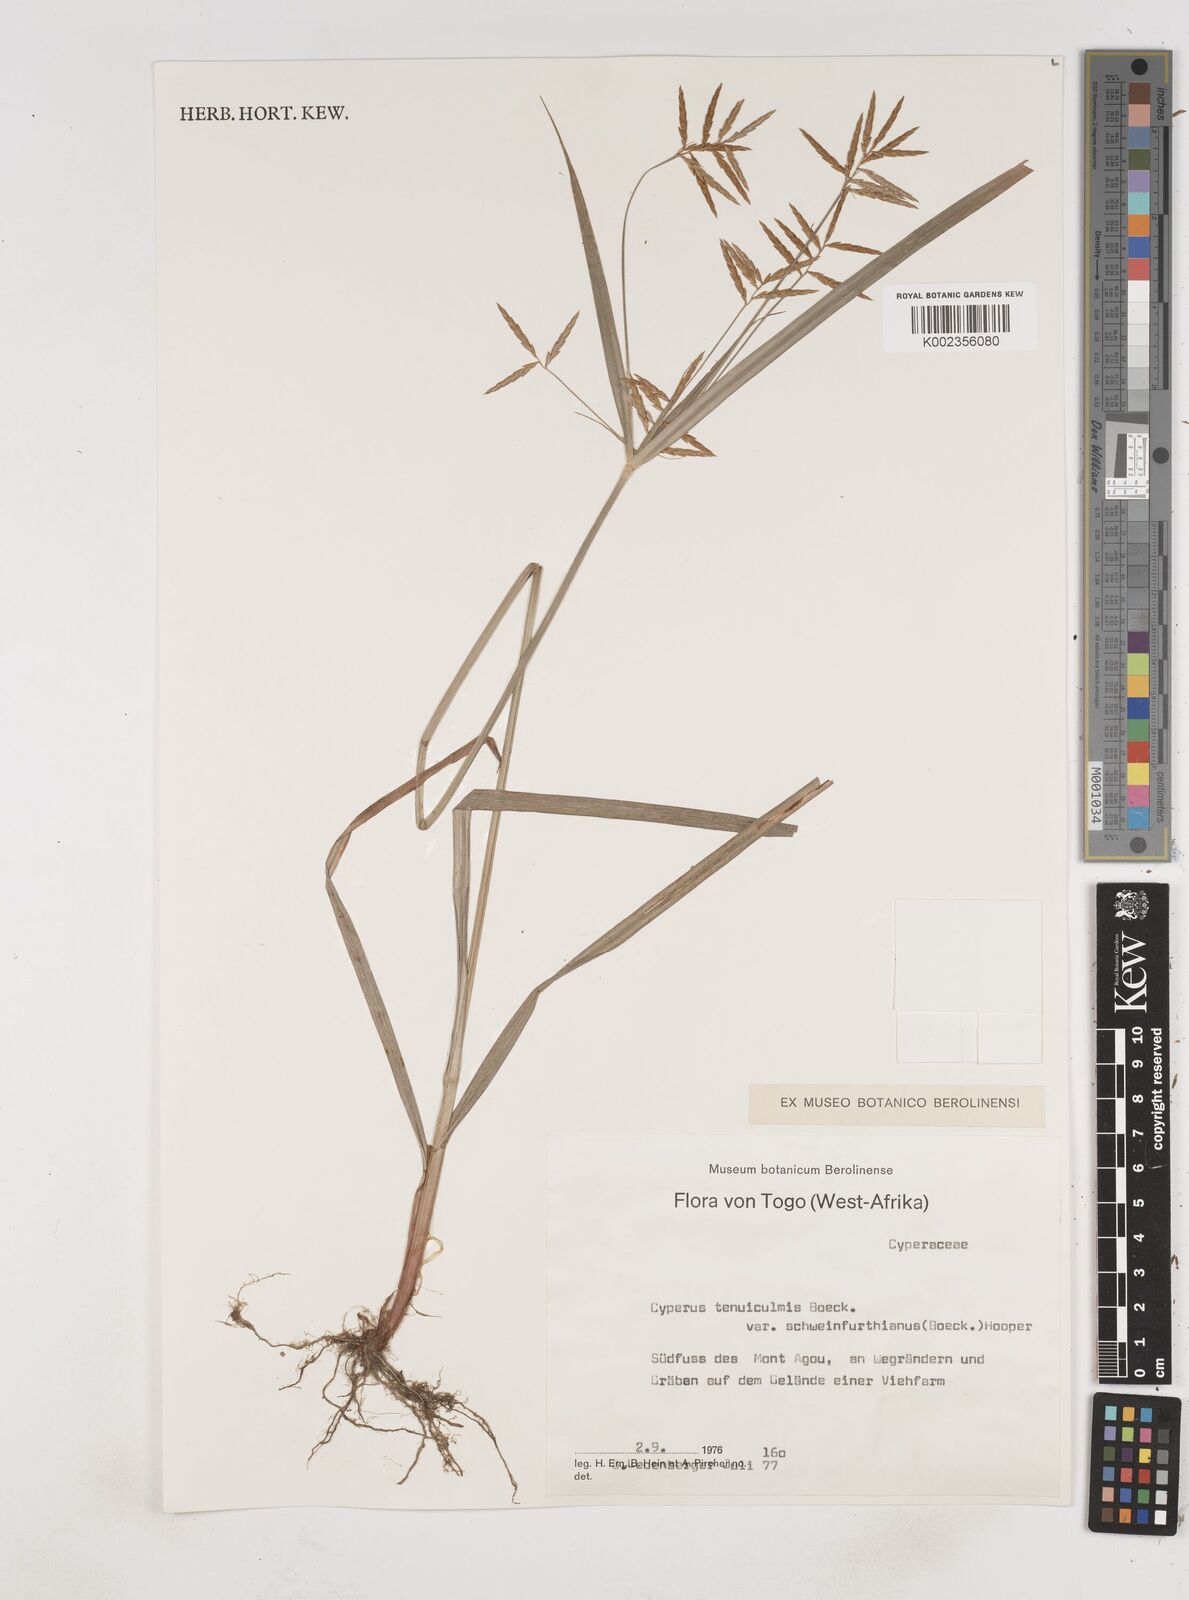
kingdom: Plantae
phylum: Tracheophyta
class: Liliopsida
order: Poales
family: Cyperaceae
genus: Cyperus
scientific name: Cyperus tenuiculmis
